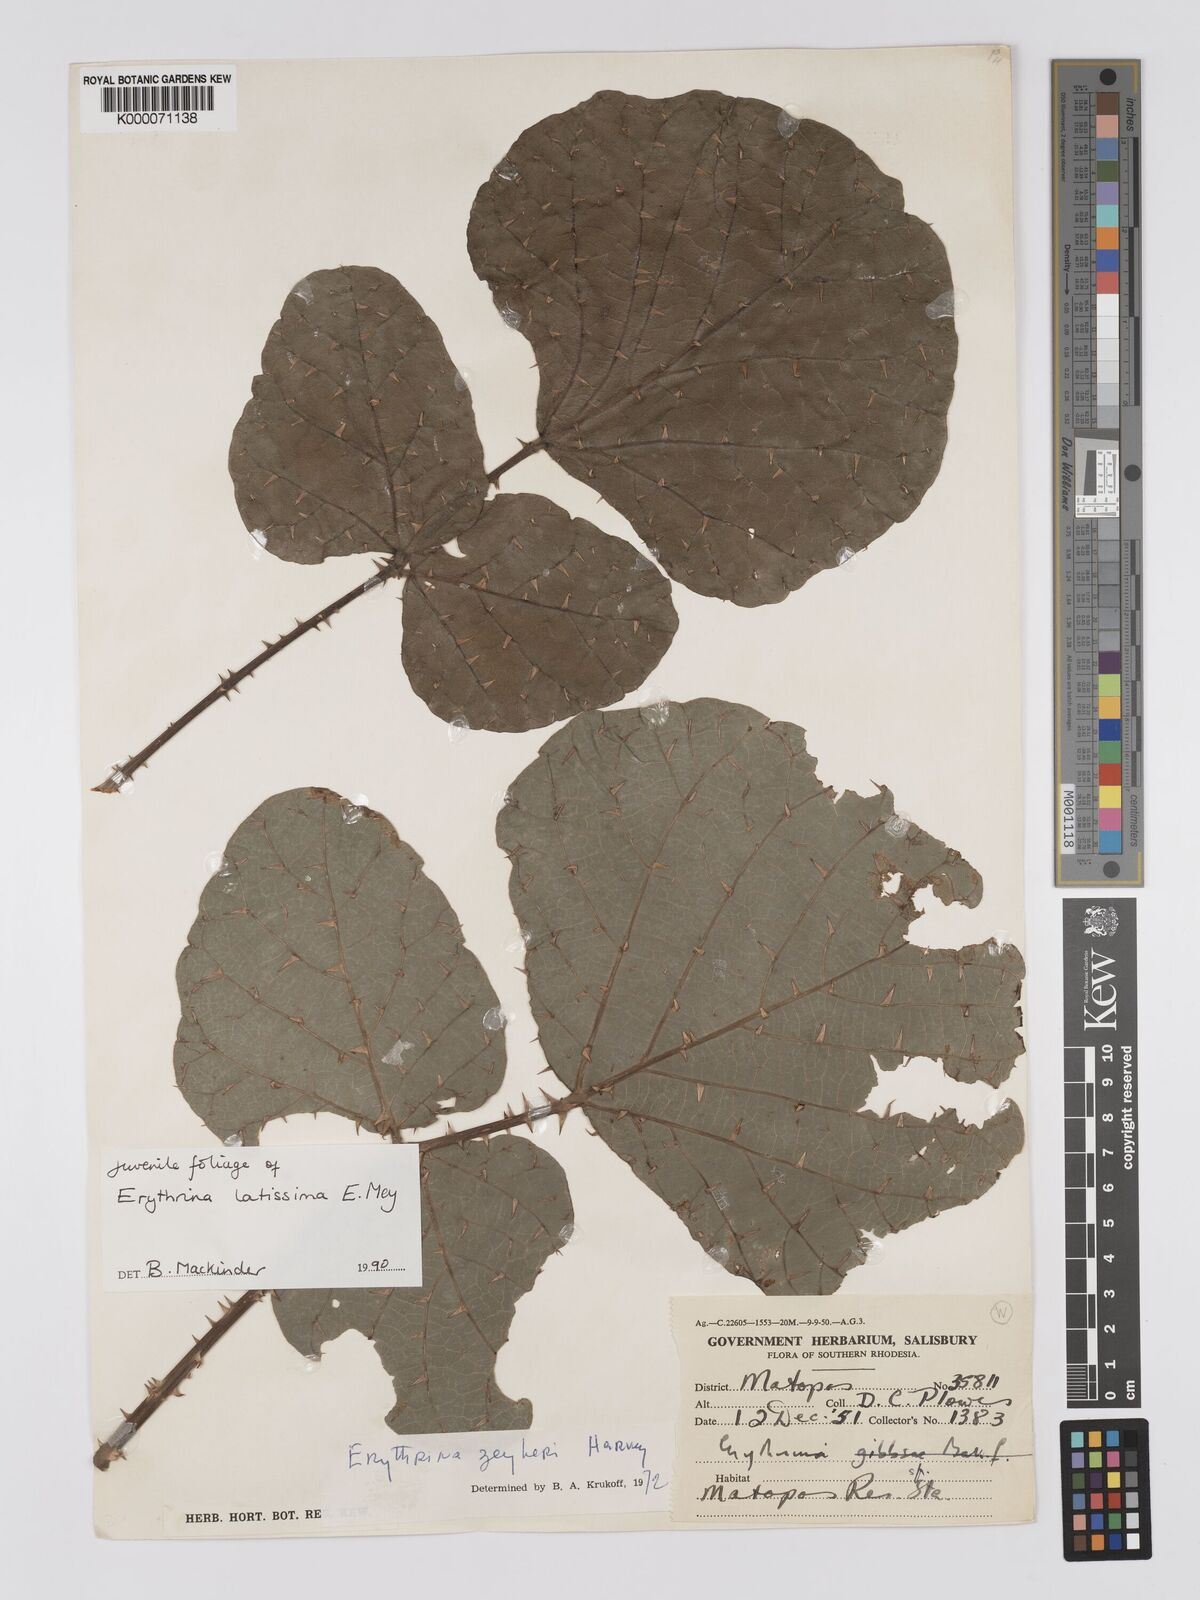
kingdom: Plantae
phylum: Tracheophyta
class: Magnoliopsida
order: Fabales
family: Fabaceae
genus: Erythrina
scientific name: Erythrina latissima
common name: Broad-leaved coral tree
